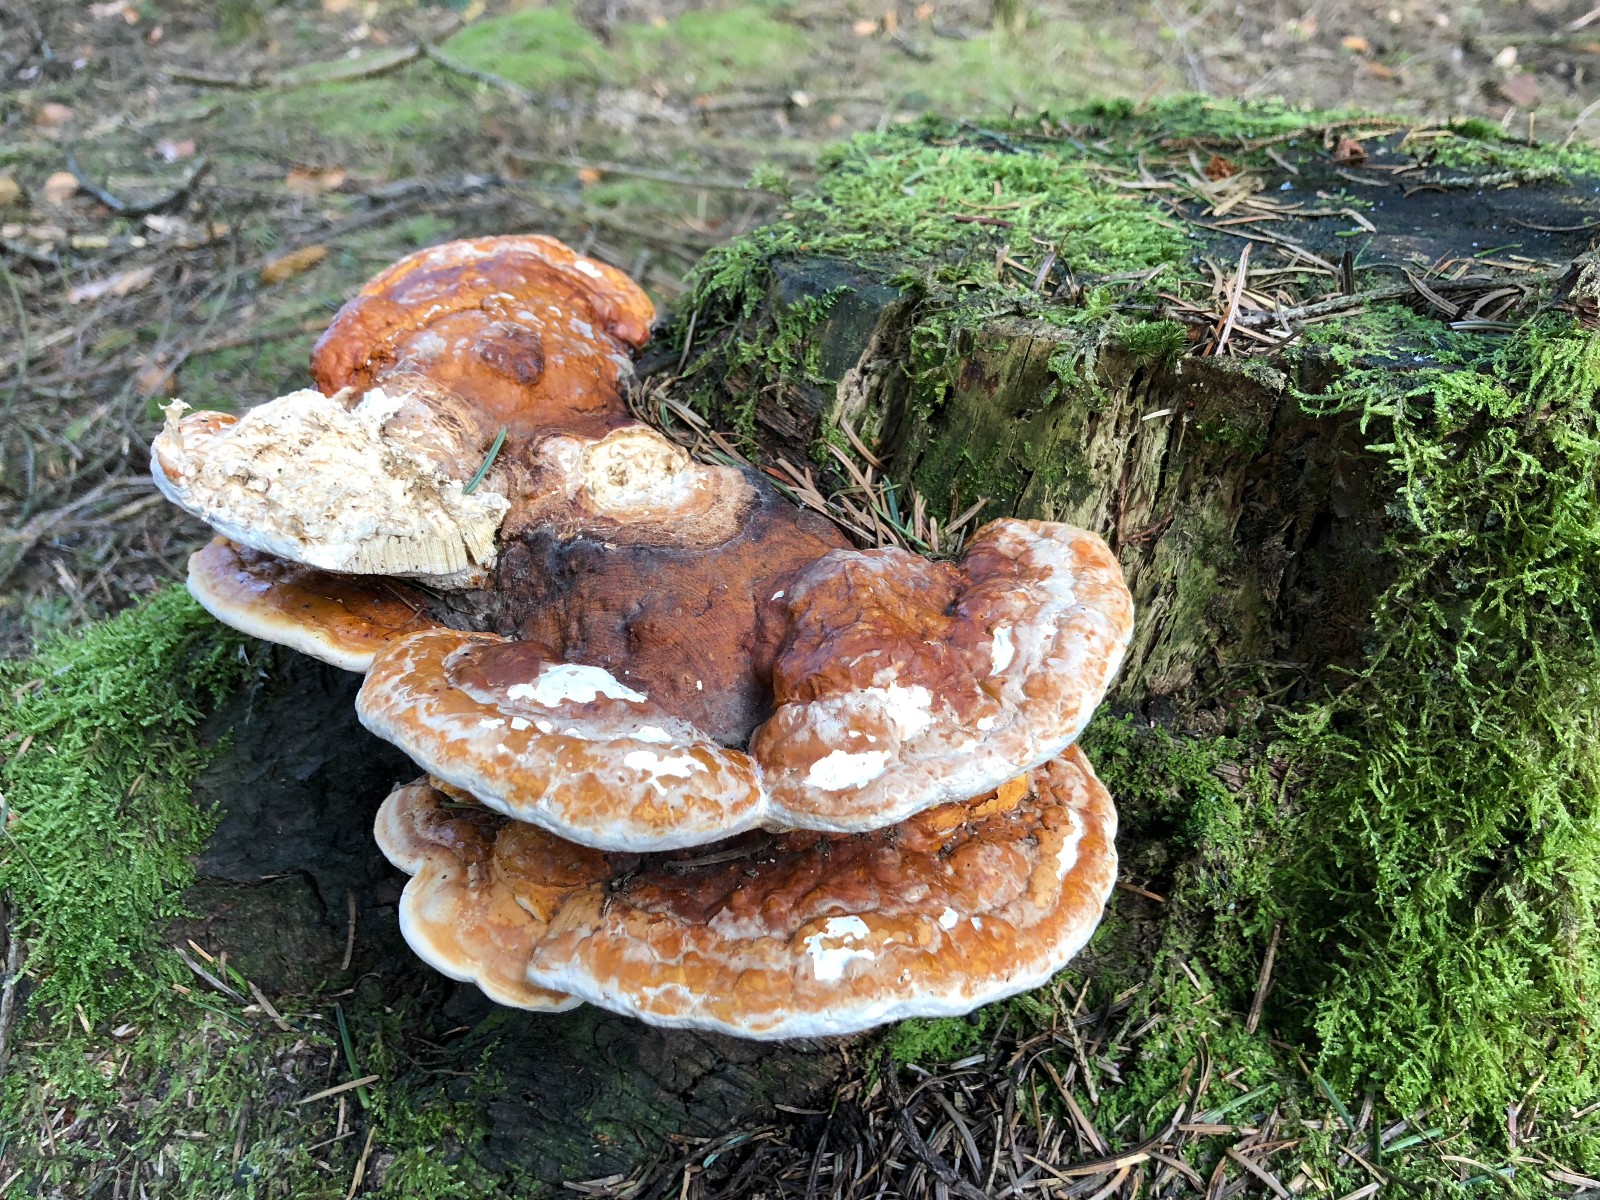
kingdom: Fungi
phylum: Basidiomycota
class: Agaricomycetes
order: Polyporales
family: Fomitopsidaceae
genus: Fomitopsis
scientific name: Fomitopsis pinicola
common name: randbæltet hovporesvamp
